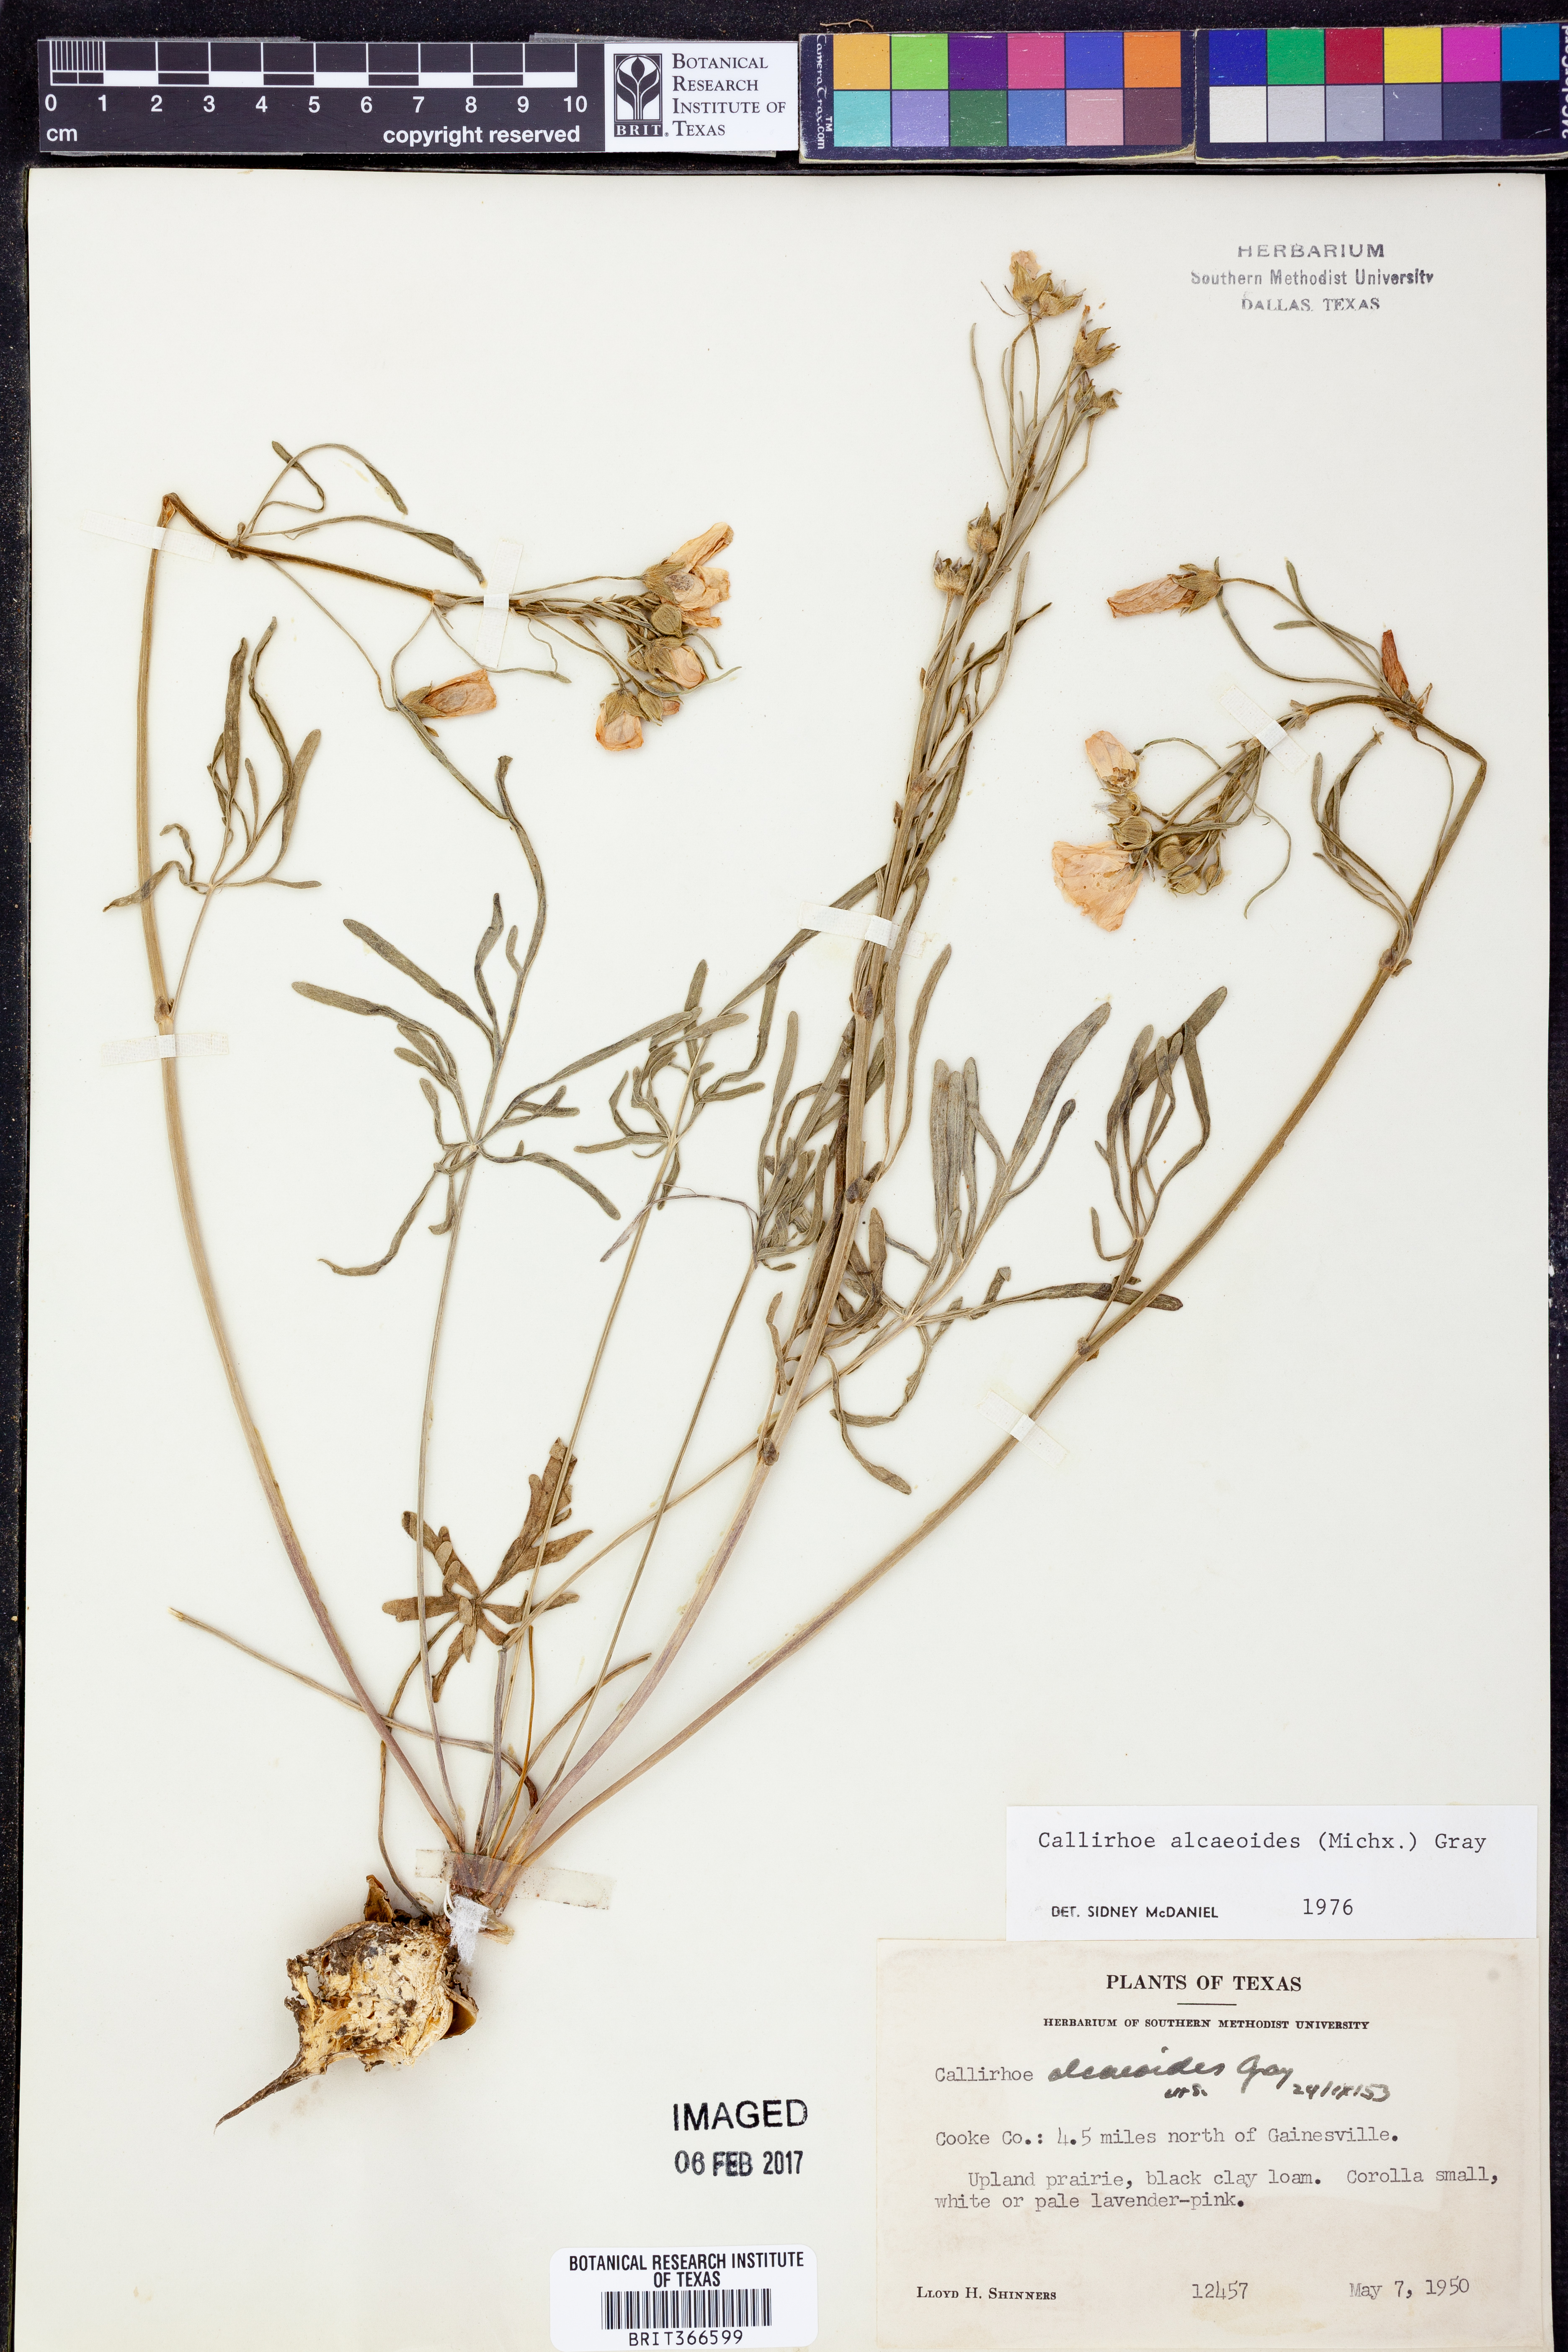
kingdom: Plantae
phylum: Tracheophyta
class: Magnoliopsida
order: Malvales
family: Malvaceae
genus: Callirhoe
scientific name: Callirhoe alcaeoides
